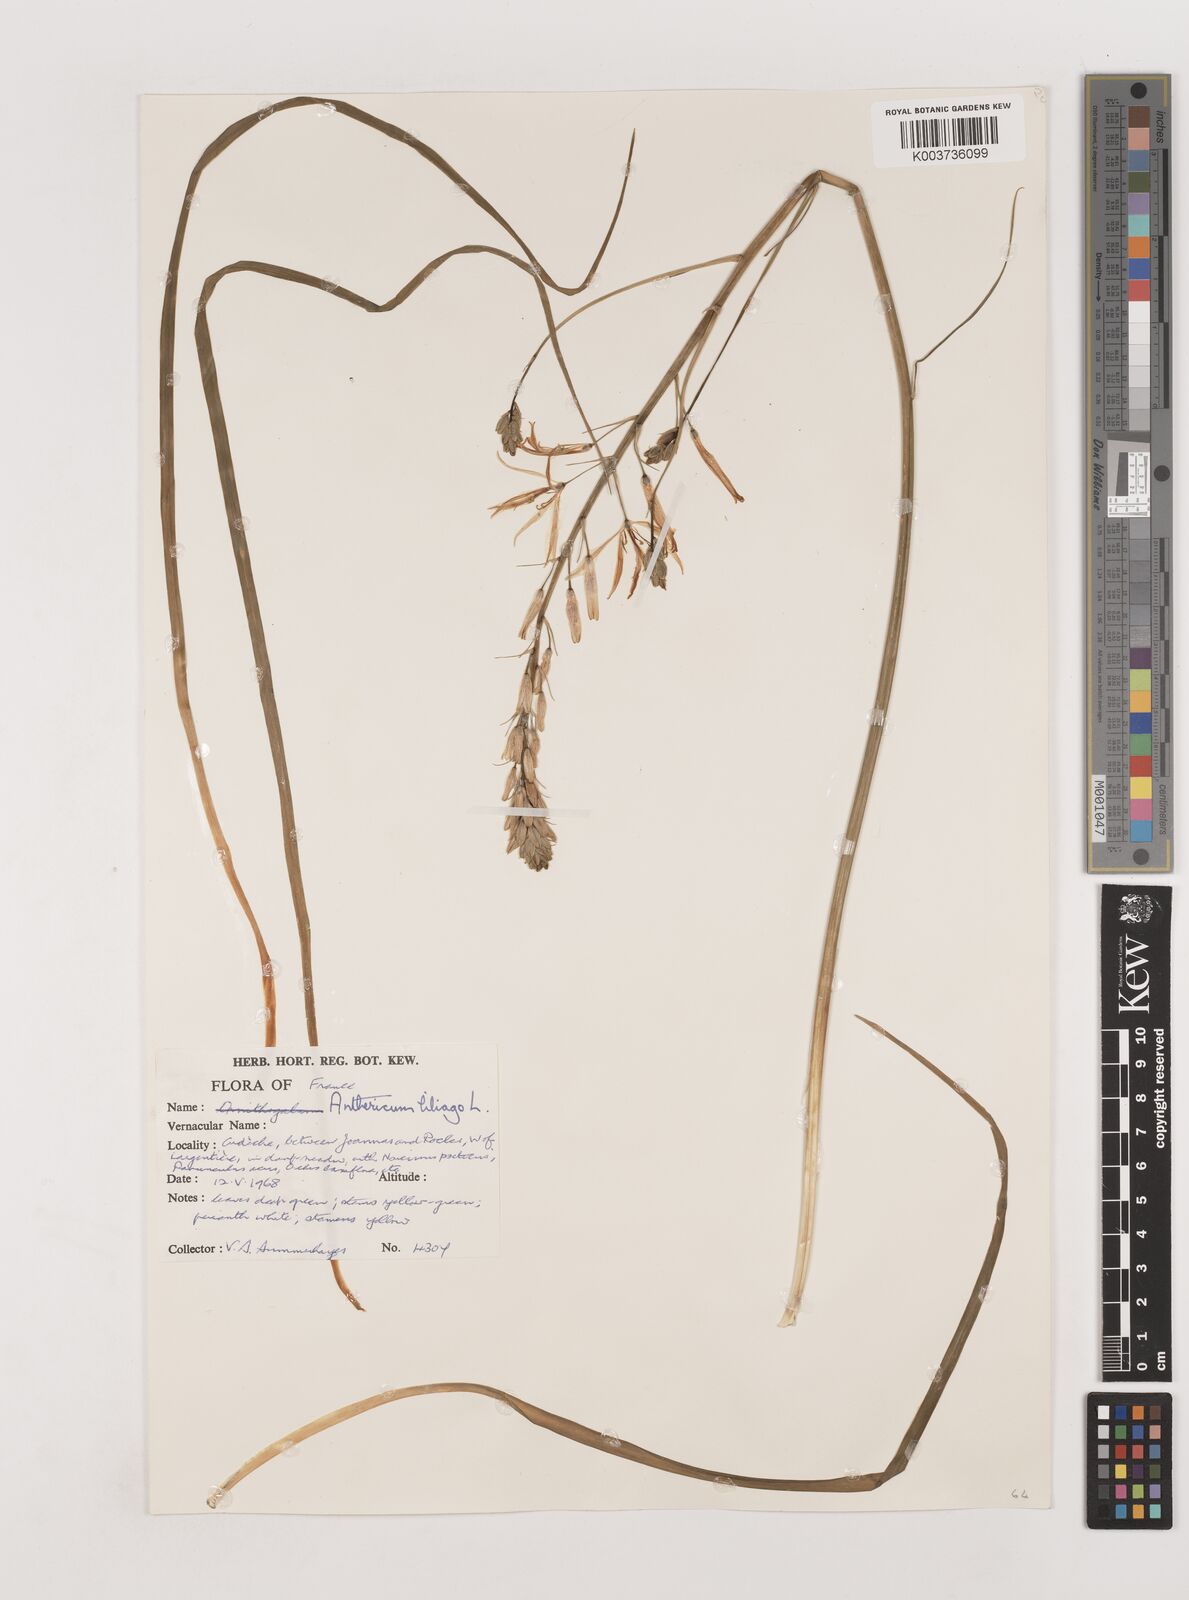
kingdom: Plantae
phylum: Tracheophyta
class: Liliopsida
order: Asparagales
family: Asparagaceae
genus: Anthericum
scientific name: Anthericum liliago
